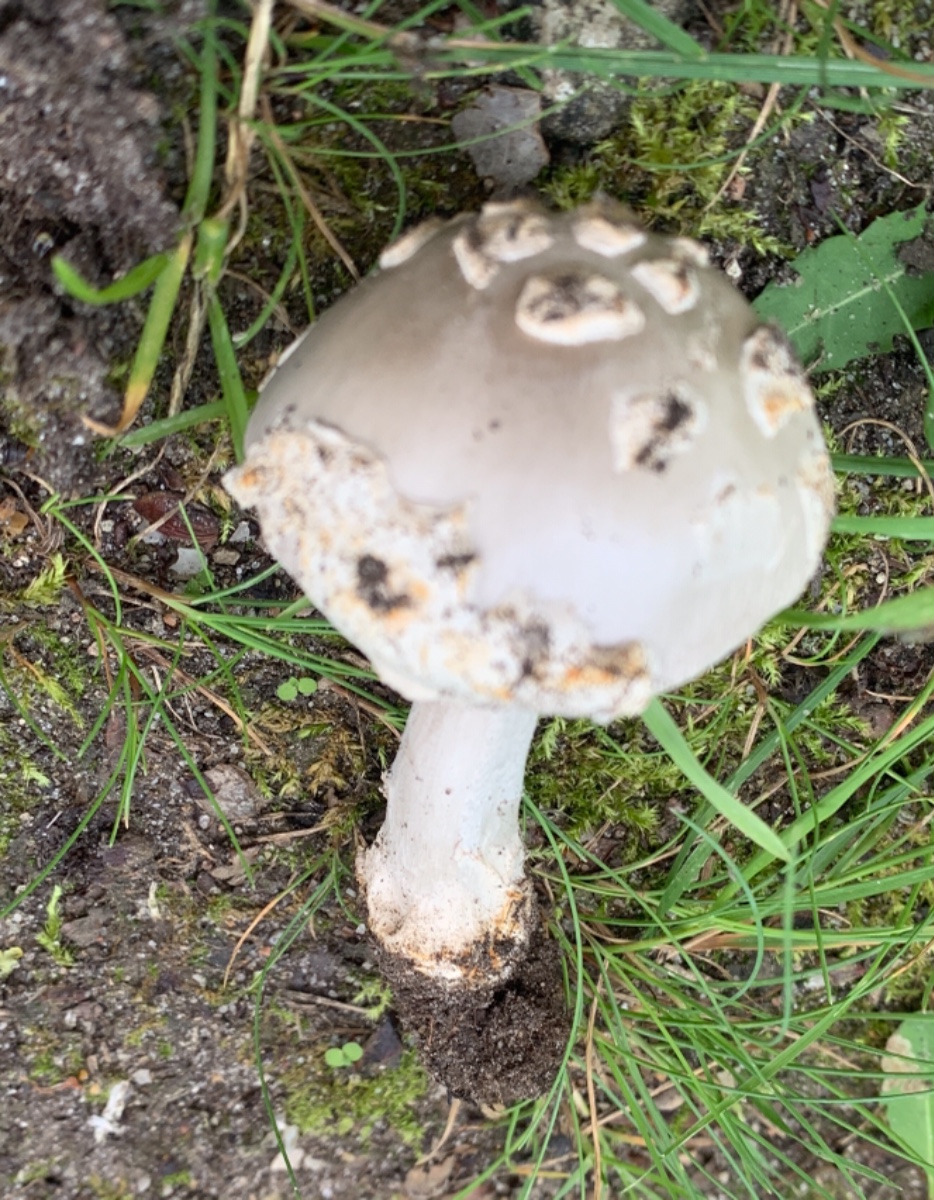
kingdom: Fungi
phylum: Basidiomycota
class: Agaricomycetes
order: Agaricales
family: Amanitaceae
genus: Amanita
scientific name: Amanita vaginata
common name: grå kam-fluesvamp
